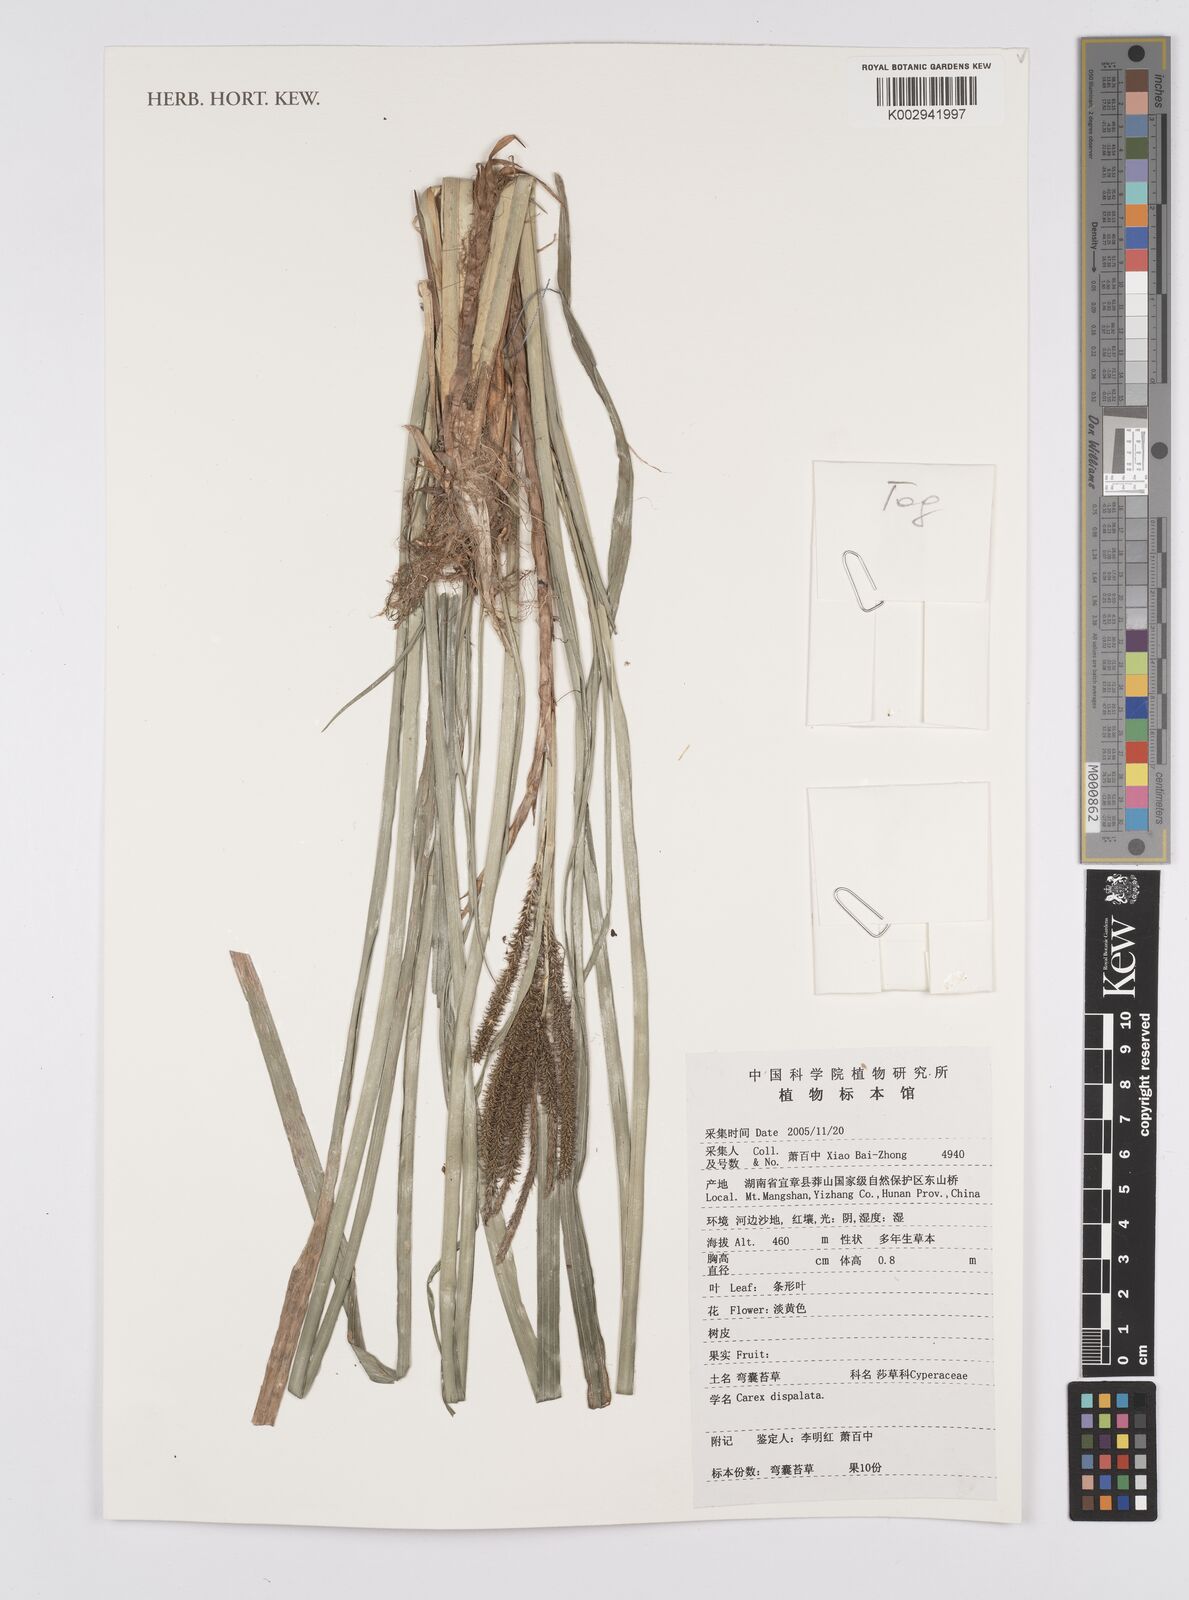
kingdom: Plantae
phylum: Tracheophyta
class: Liliopsida
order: Poales
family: Cyperaceae
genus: Carex
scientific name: Carex dispalata
